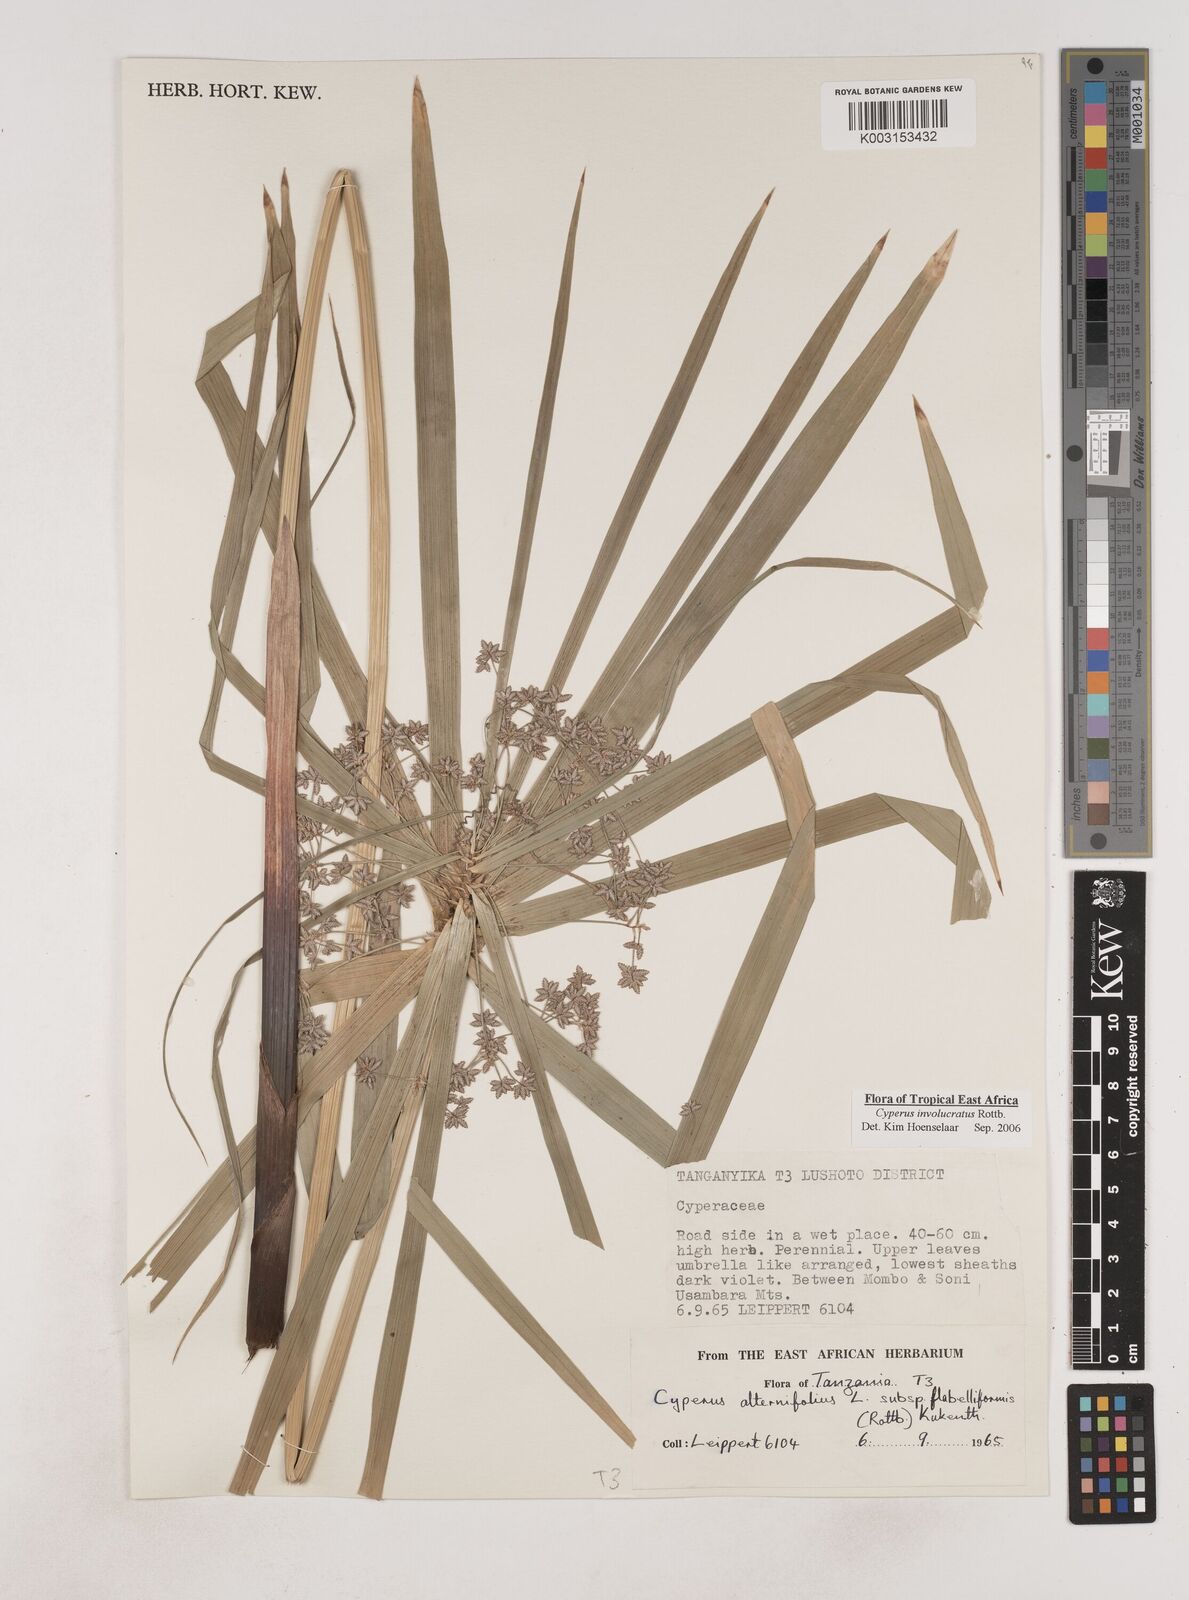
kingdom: Plantae
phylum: Tracheophyta
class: Liliopsida
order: Poales
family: Cyperaceae
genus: Cyperus
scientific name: Cyperus
